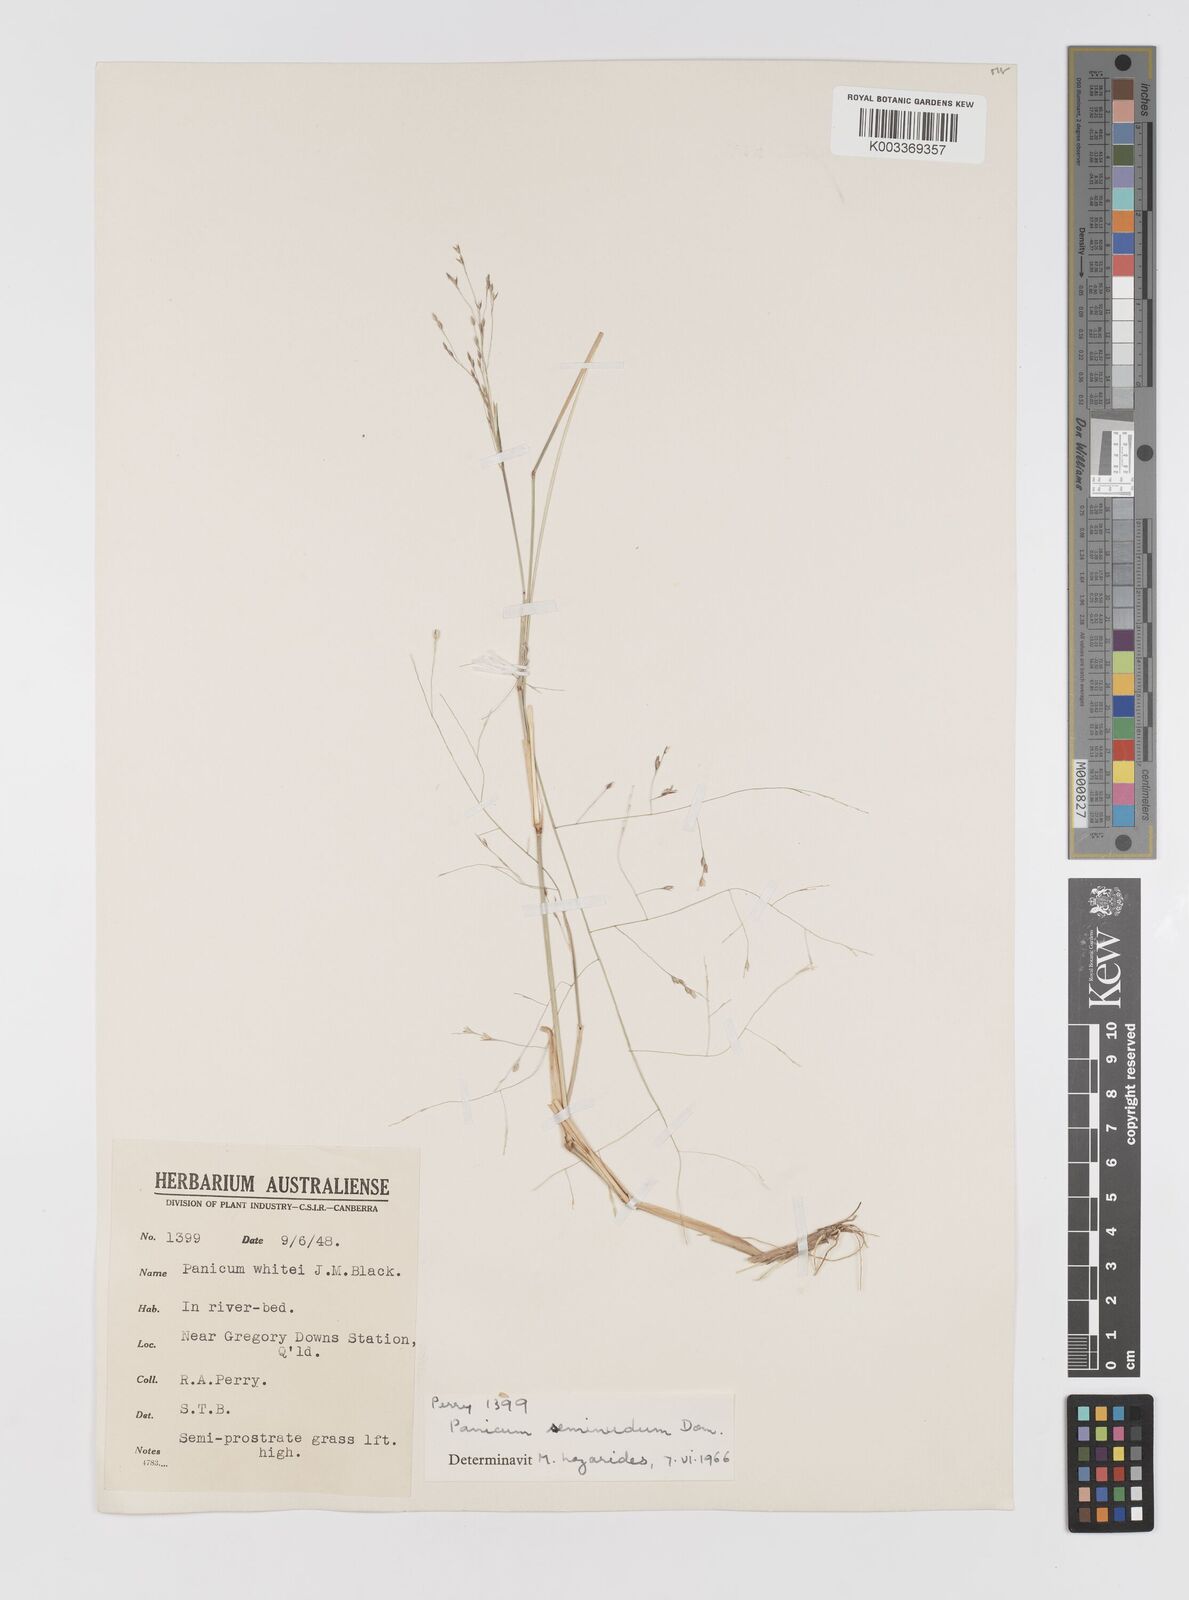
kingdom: Plantae
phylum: Tracheophyta
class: Liliopsida
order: Poales
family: Poaceae
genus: Panicum
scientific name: Panicum seminudum
